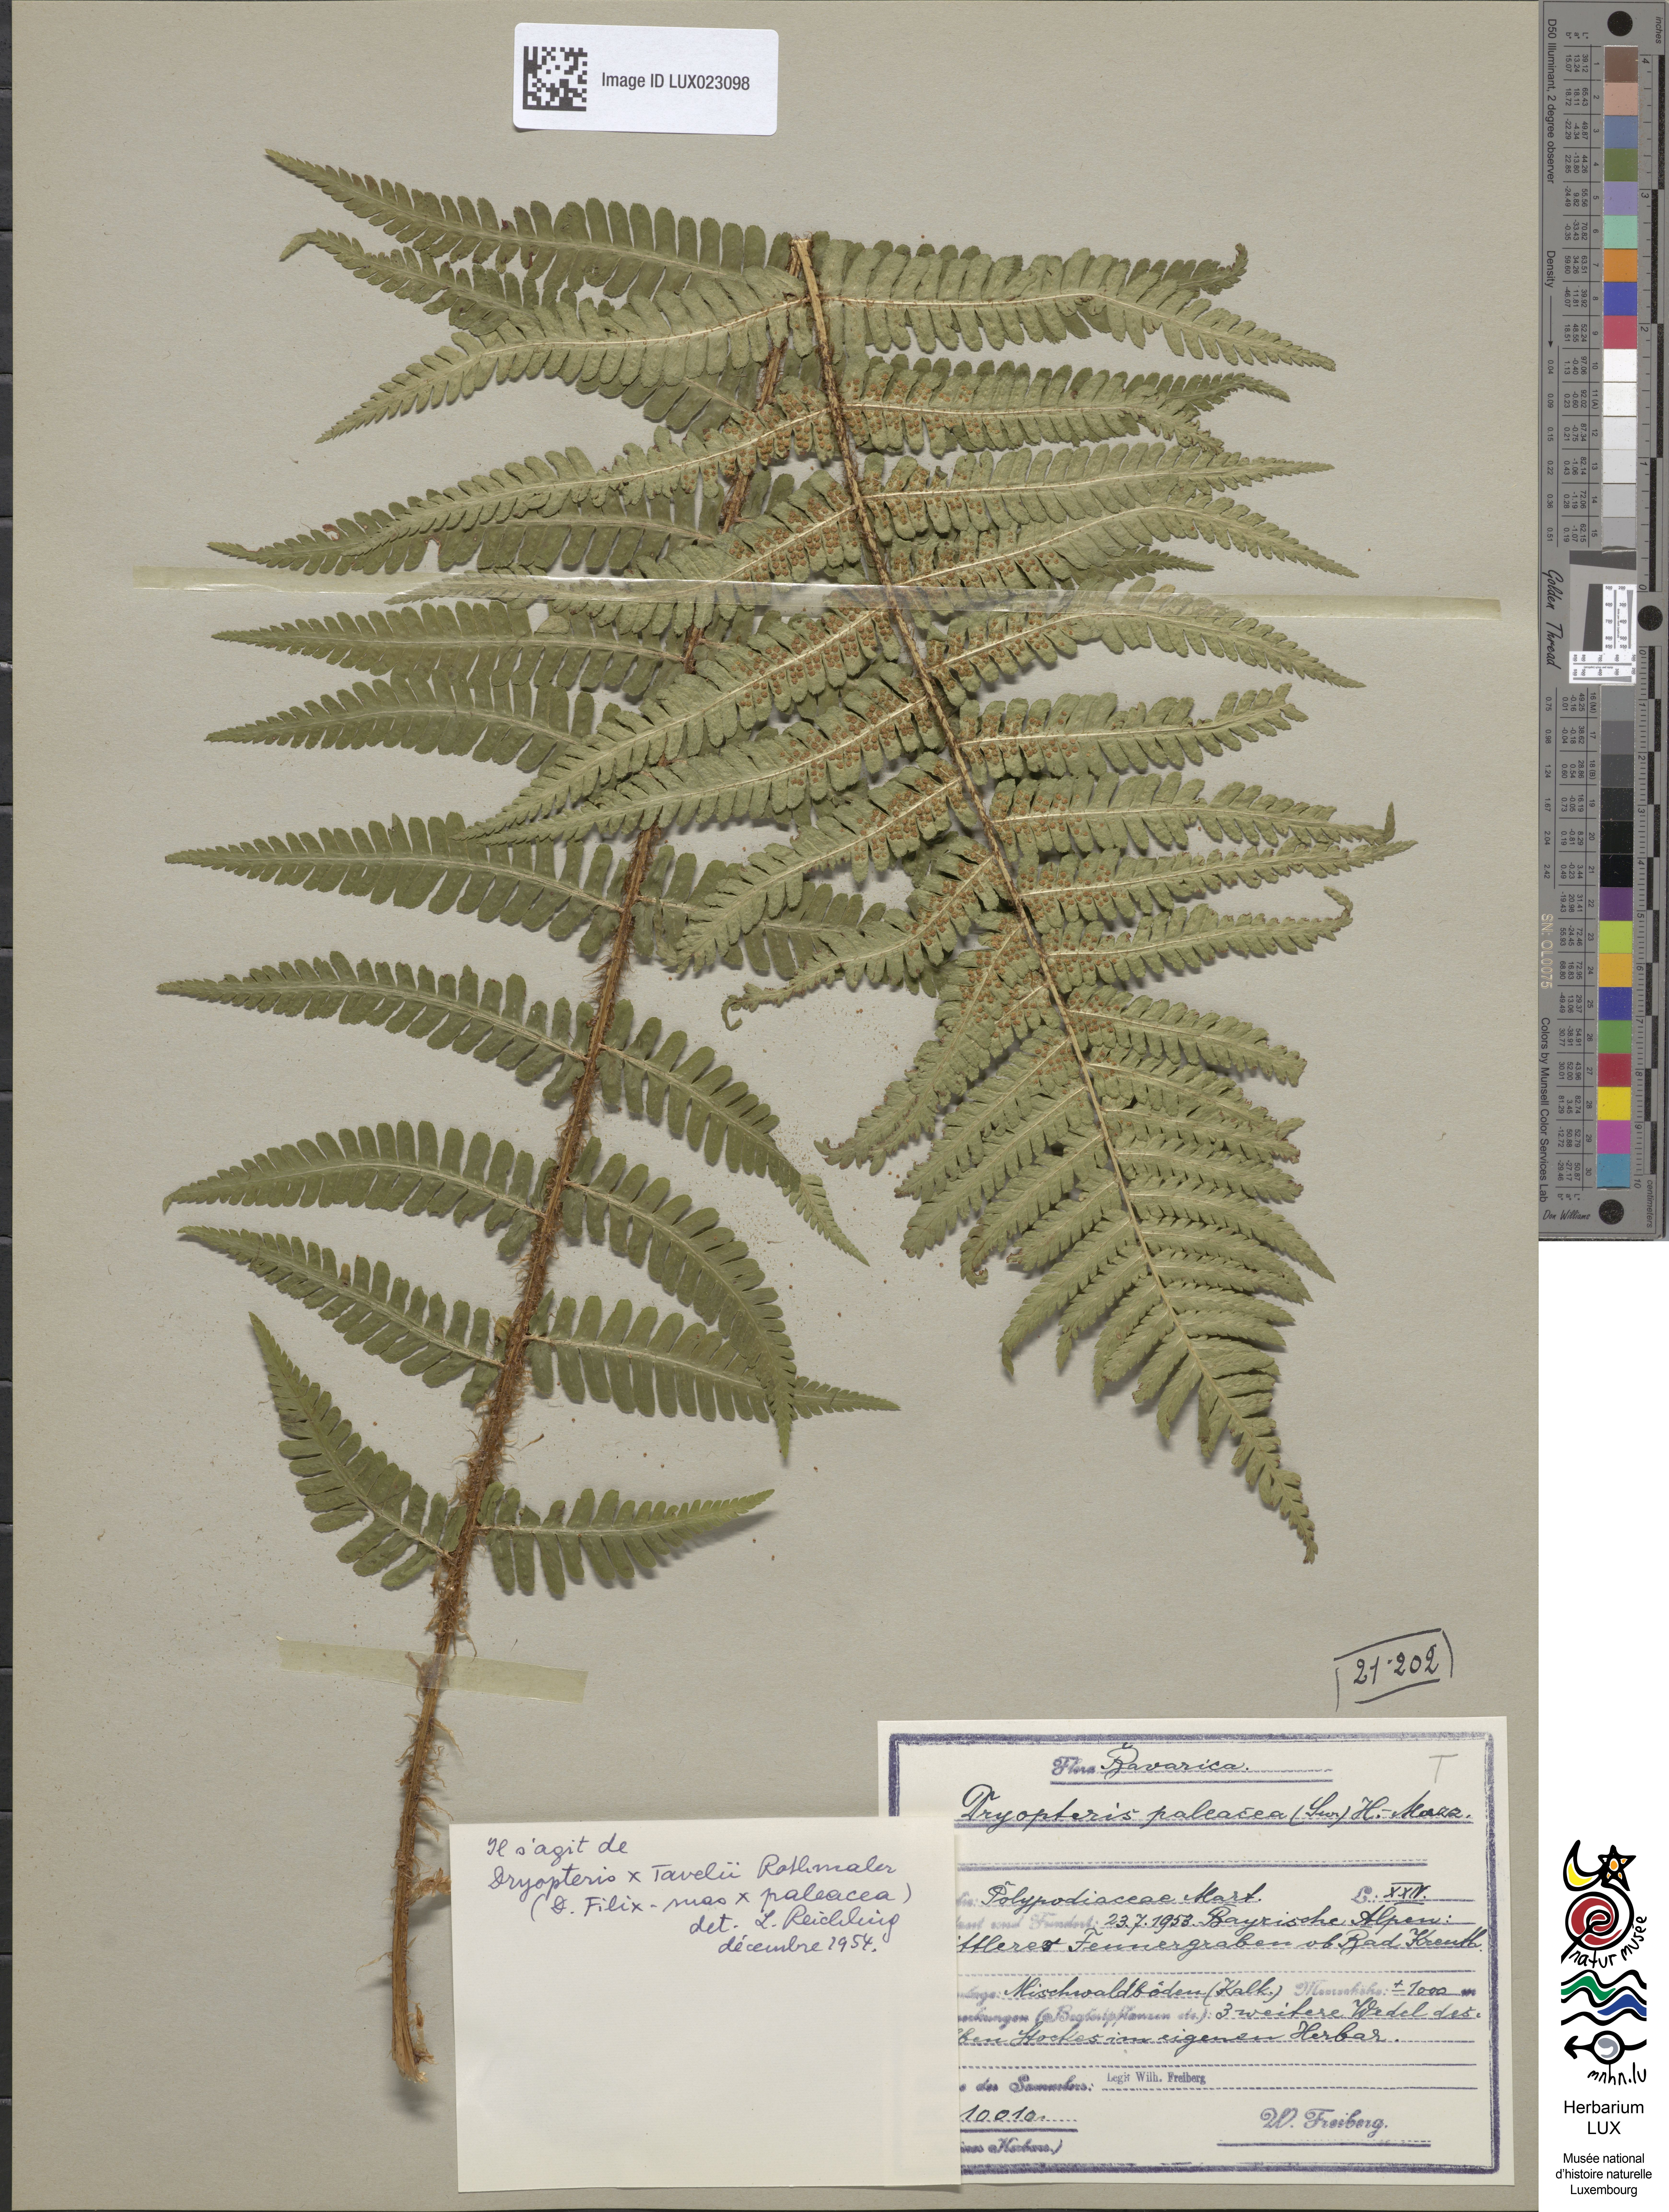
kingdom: Plantae
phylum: Tracheophyta
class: Polypodiopsida
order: Polypodiales
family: Dryopteridaceae
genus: Dryopteris
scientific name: Dryopteris borreri
